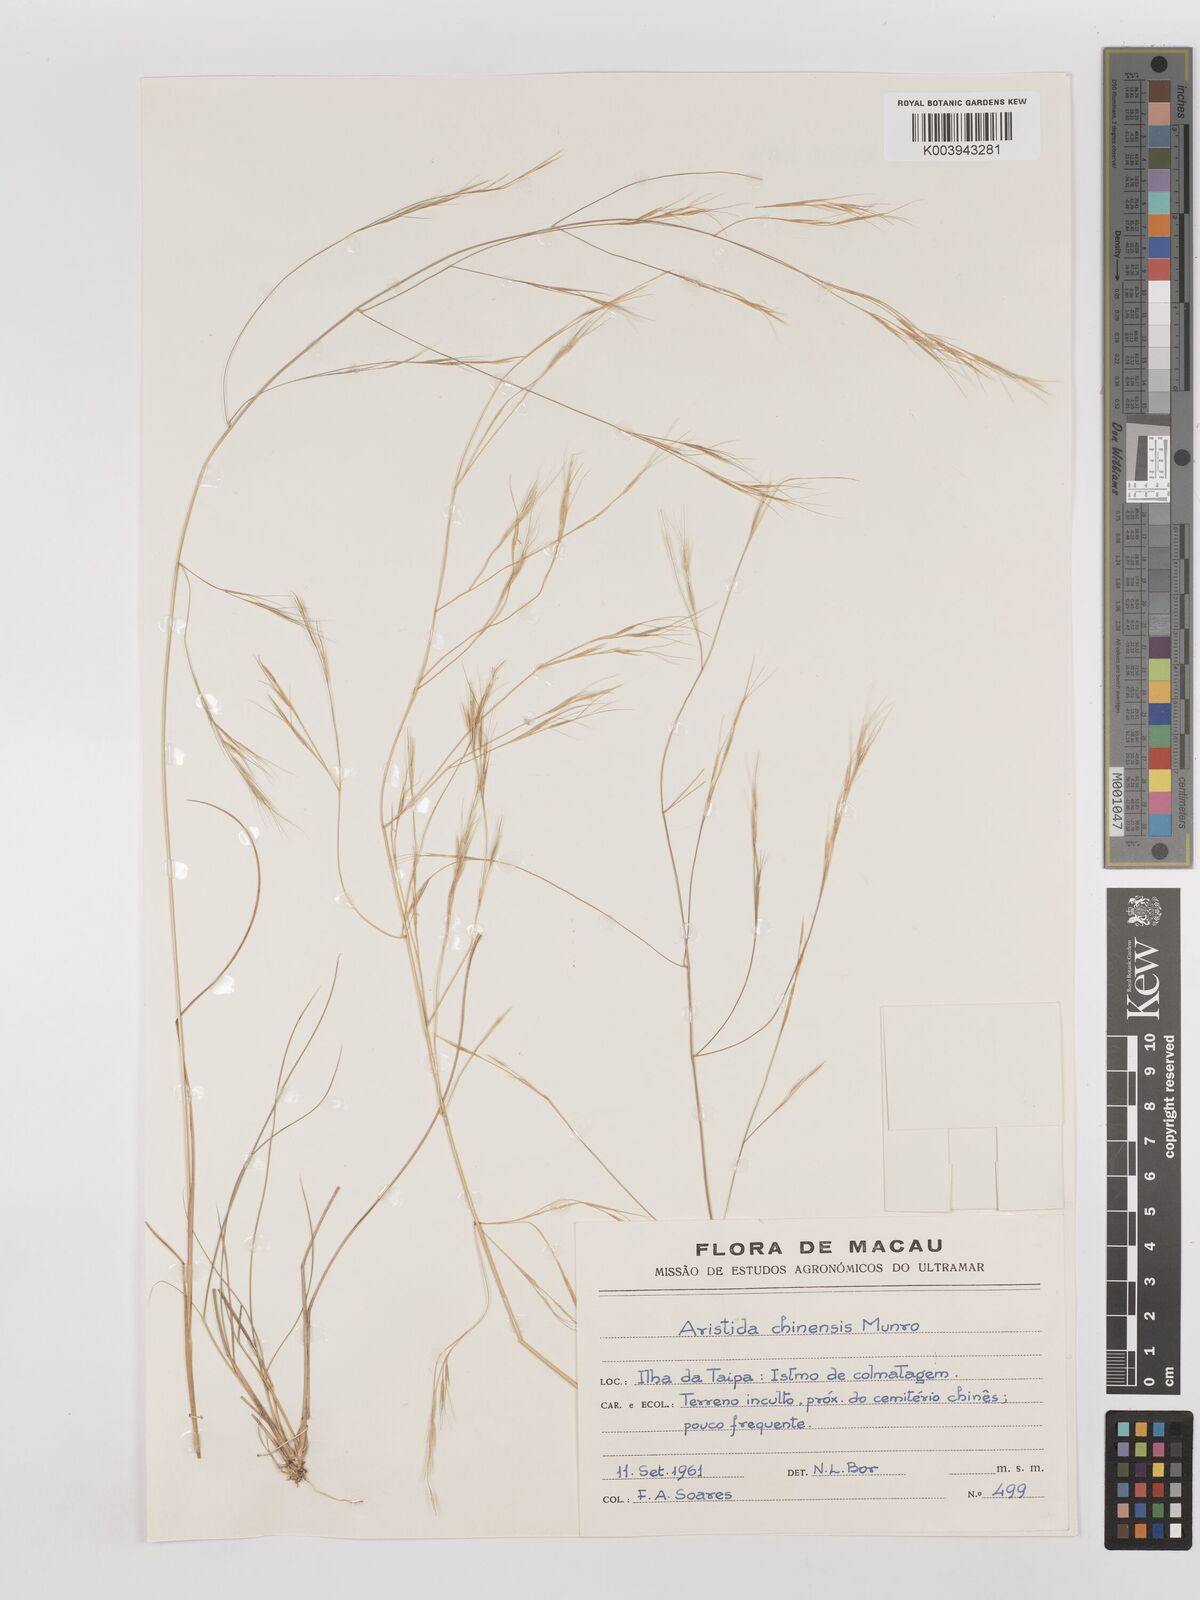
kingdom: Plantae
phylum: Tracheophyta
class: Liliopsida
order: Poales
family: Poaceae
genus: Aristida
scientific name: Aristida chinensis
